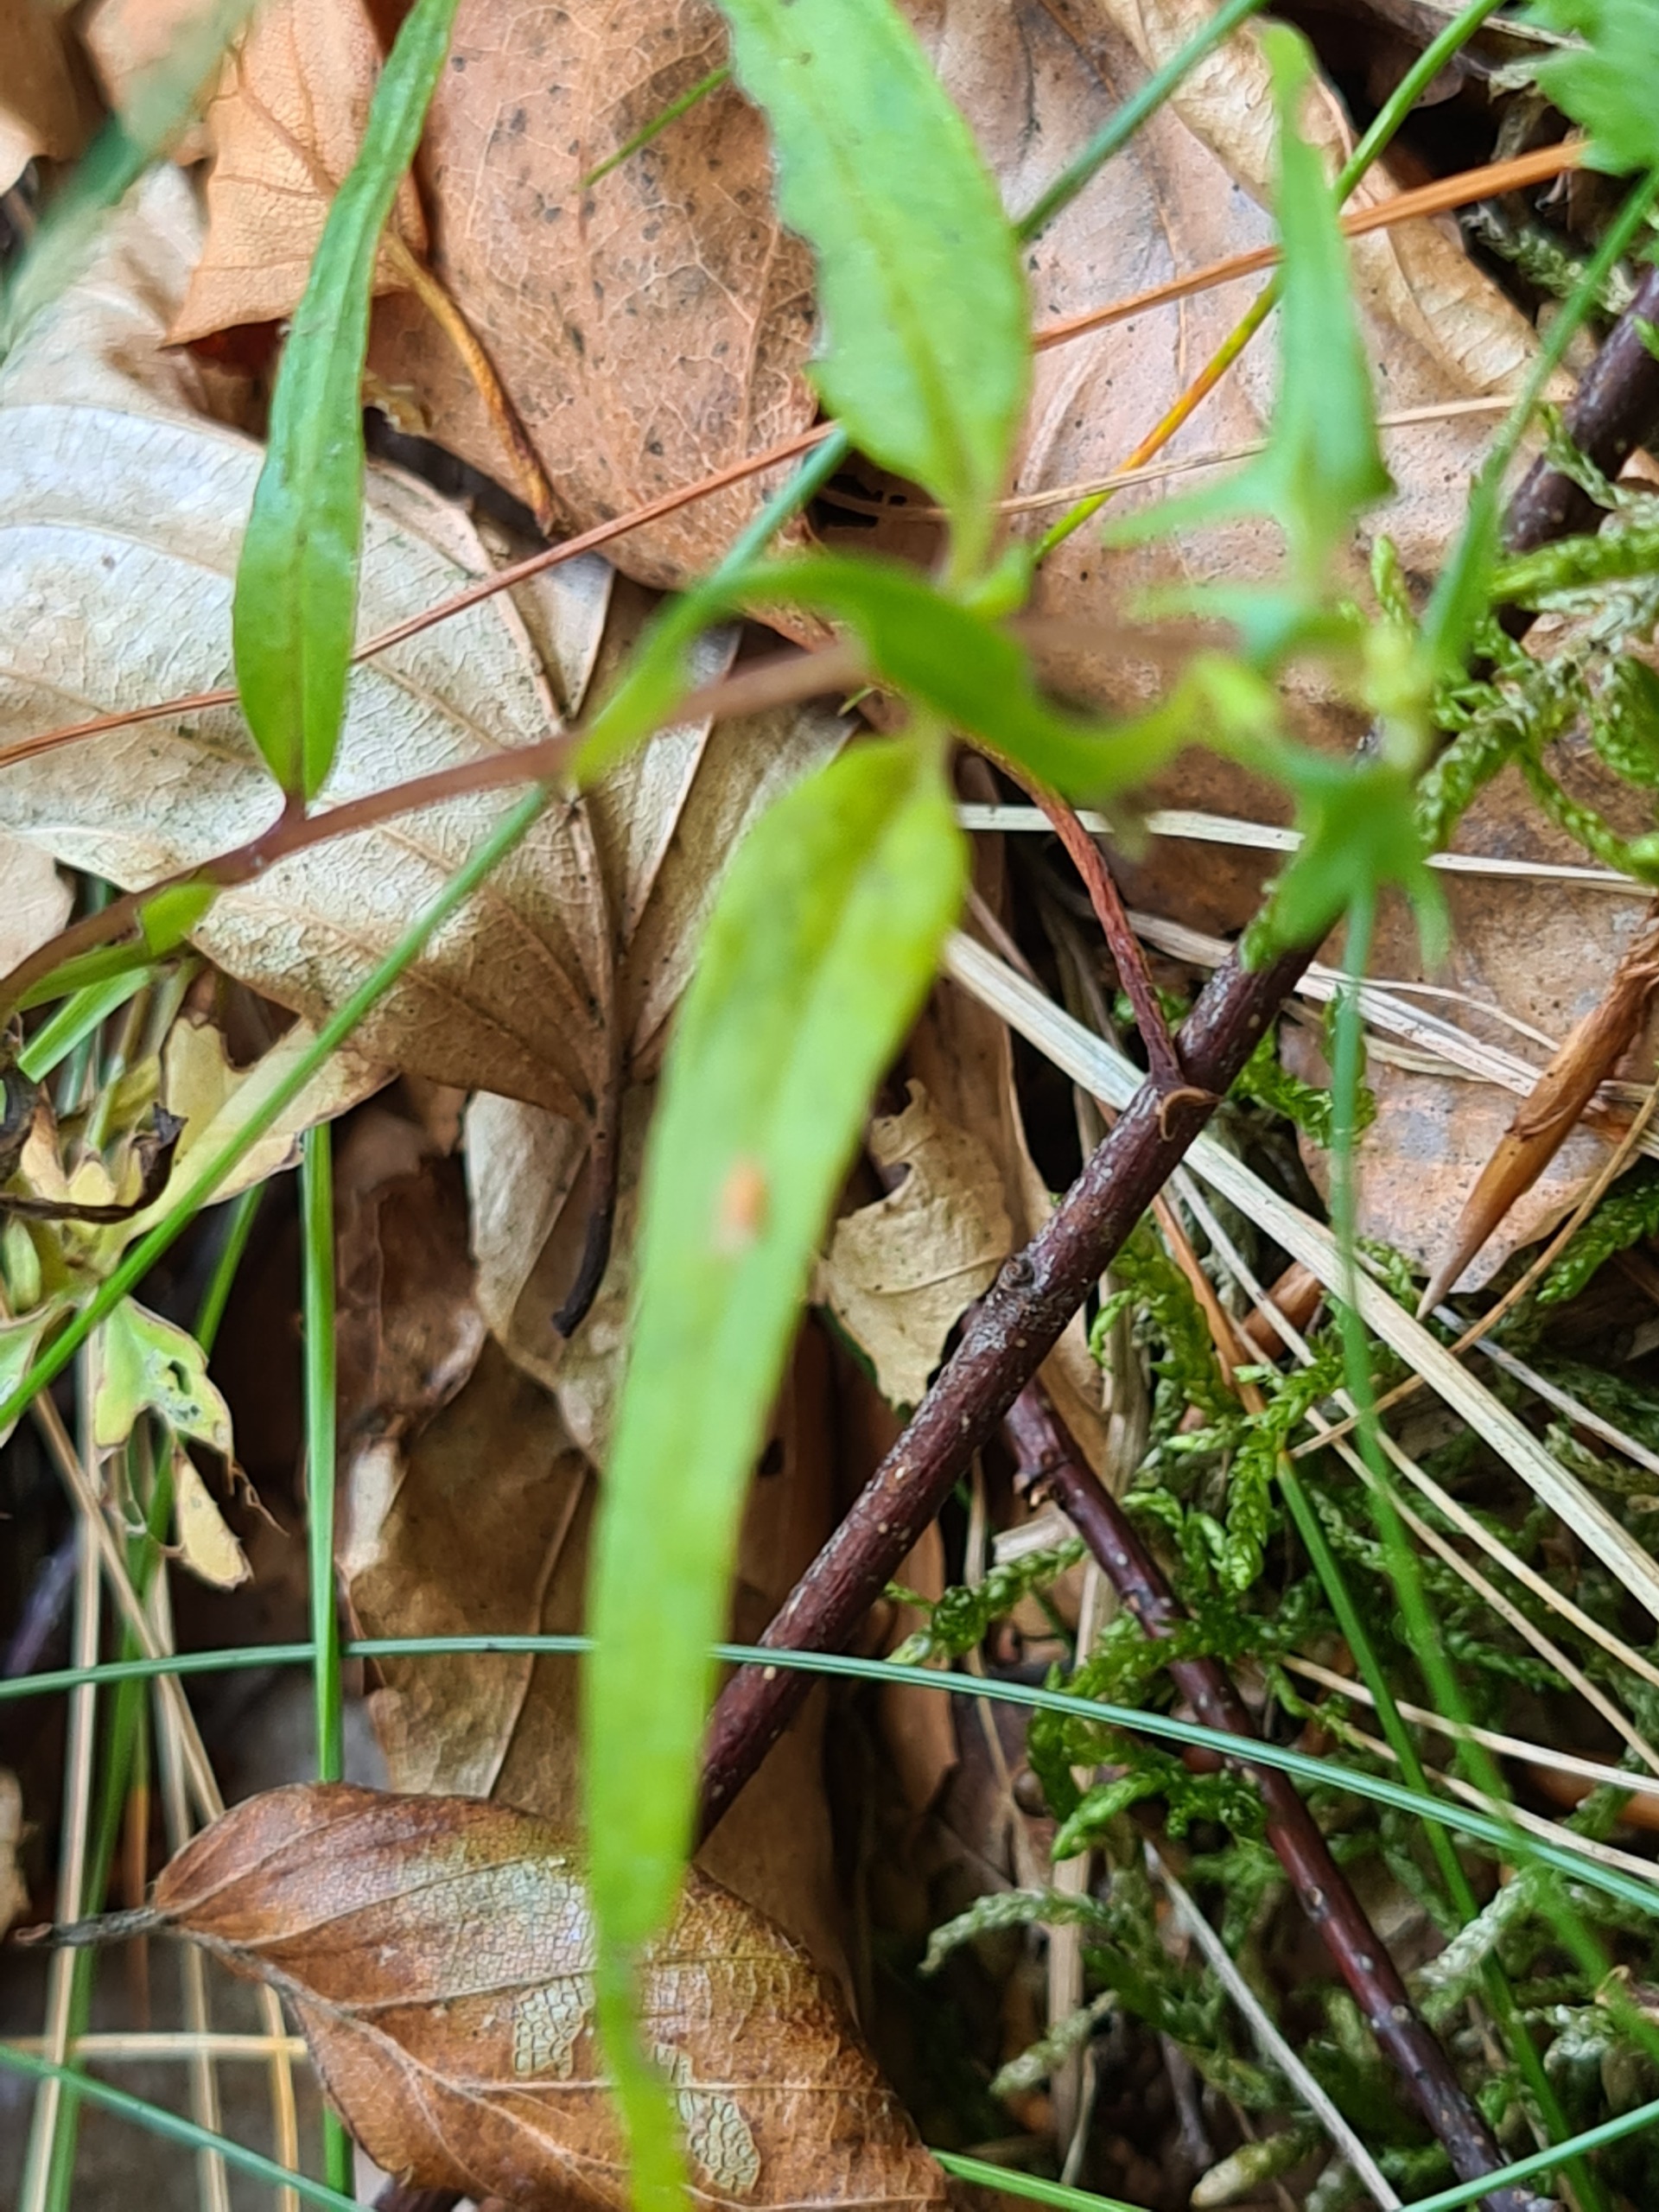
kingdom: Plantae
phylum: Tracheophyta
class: Magnoliopsida
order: Lamiales
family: Orobanchaceae
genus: Melampyrum
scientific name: Melampyrum pratense
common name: Almindelig kohvede
